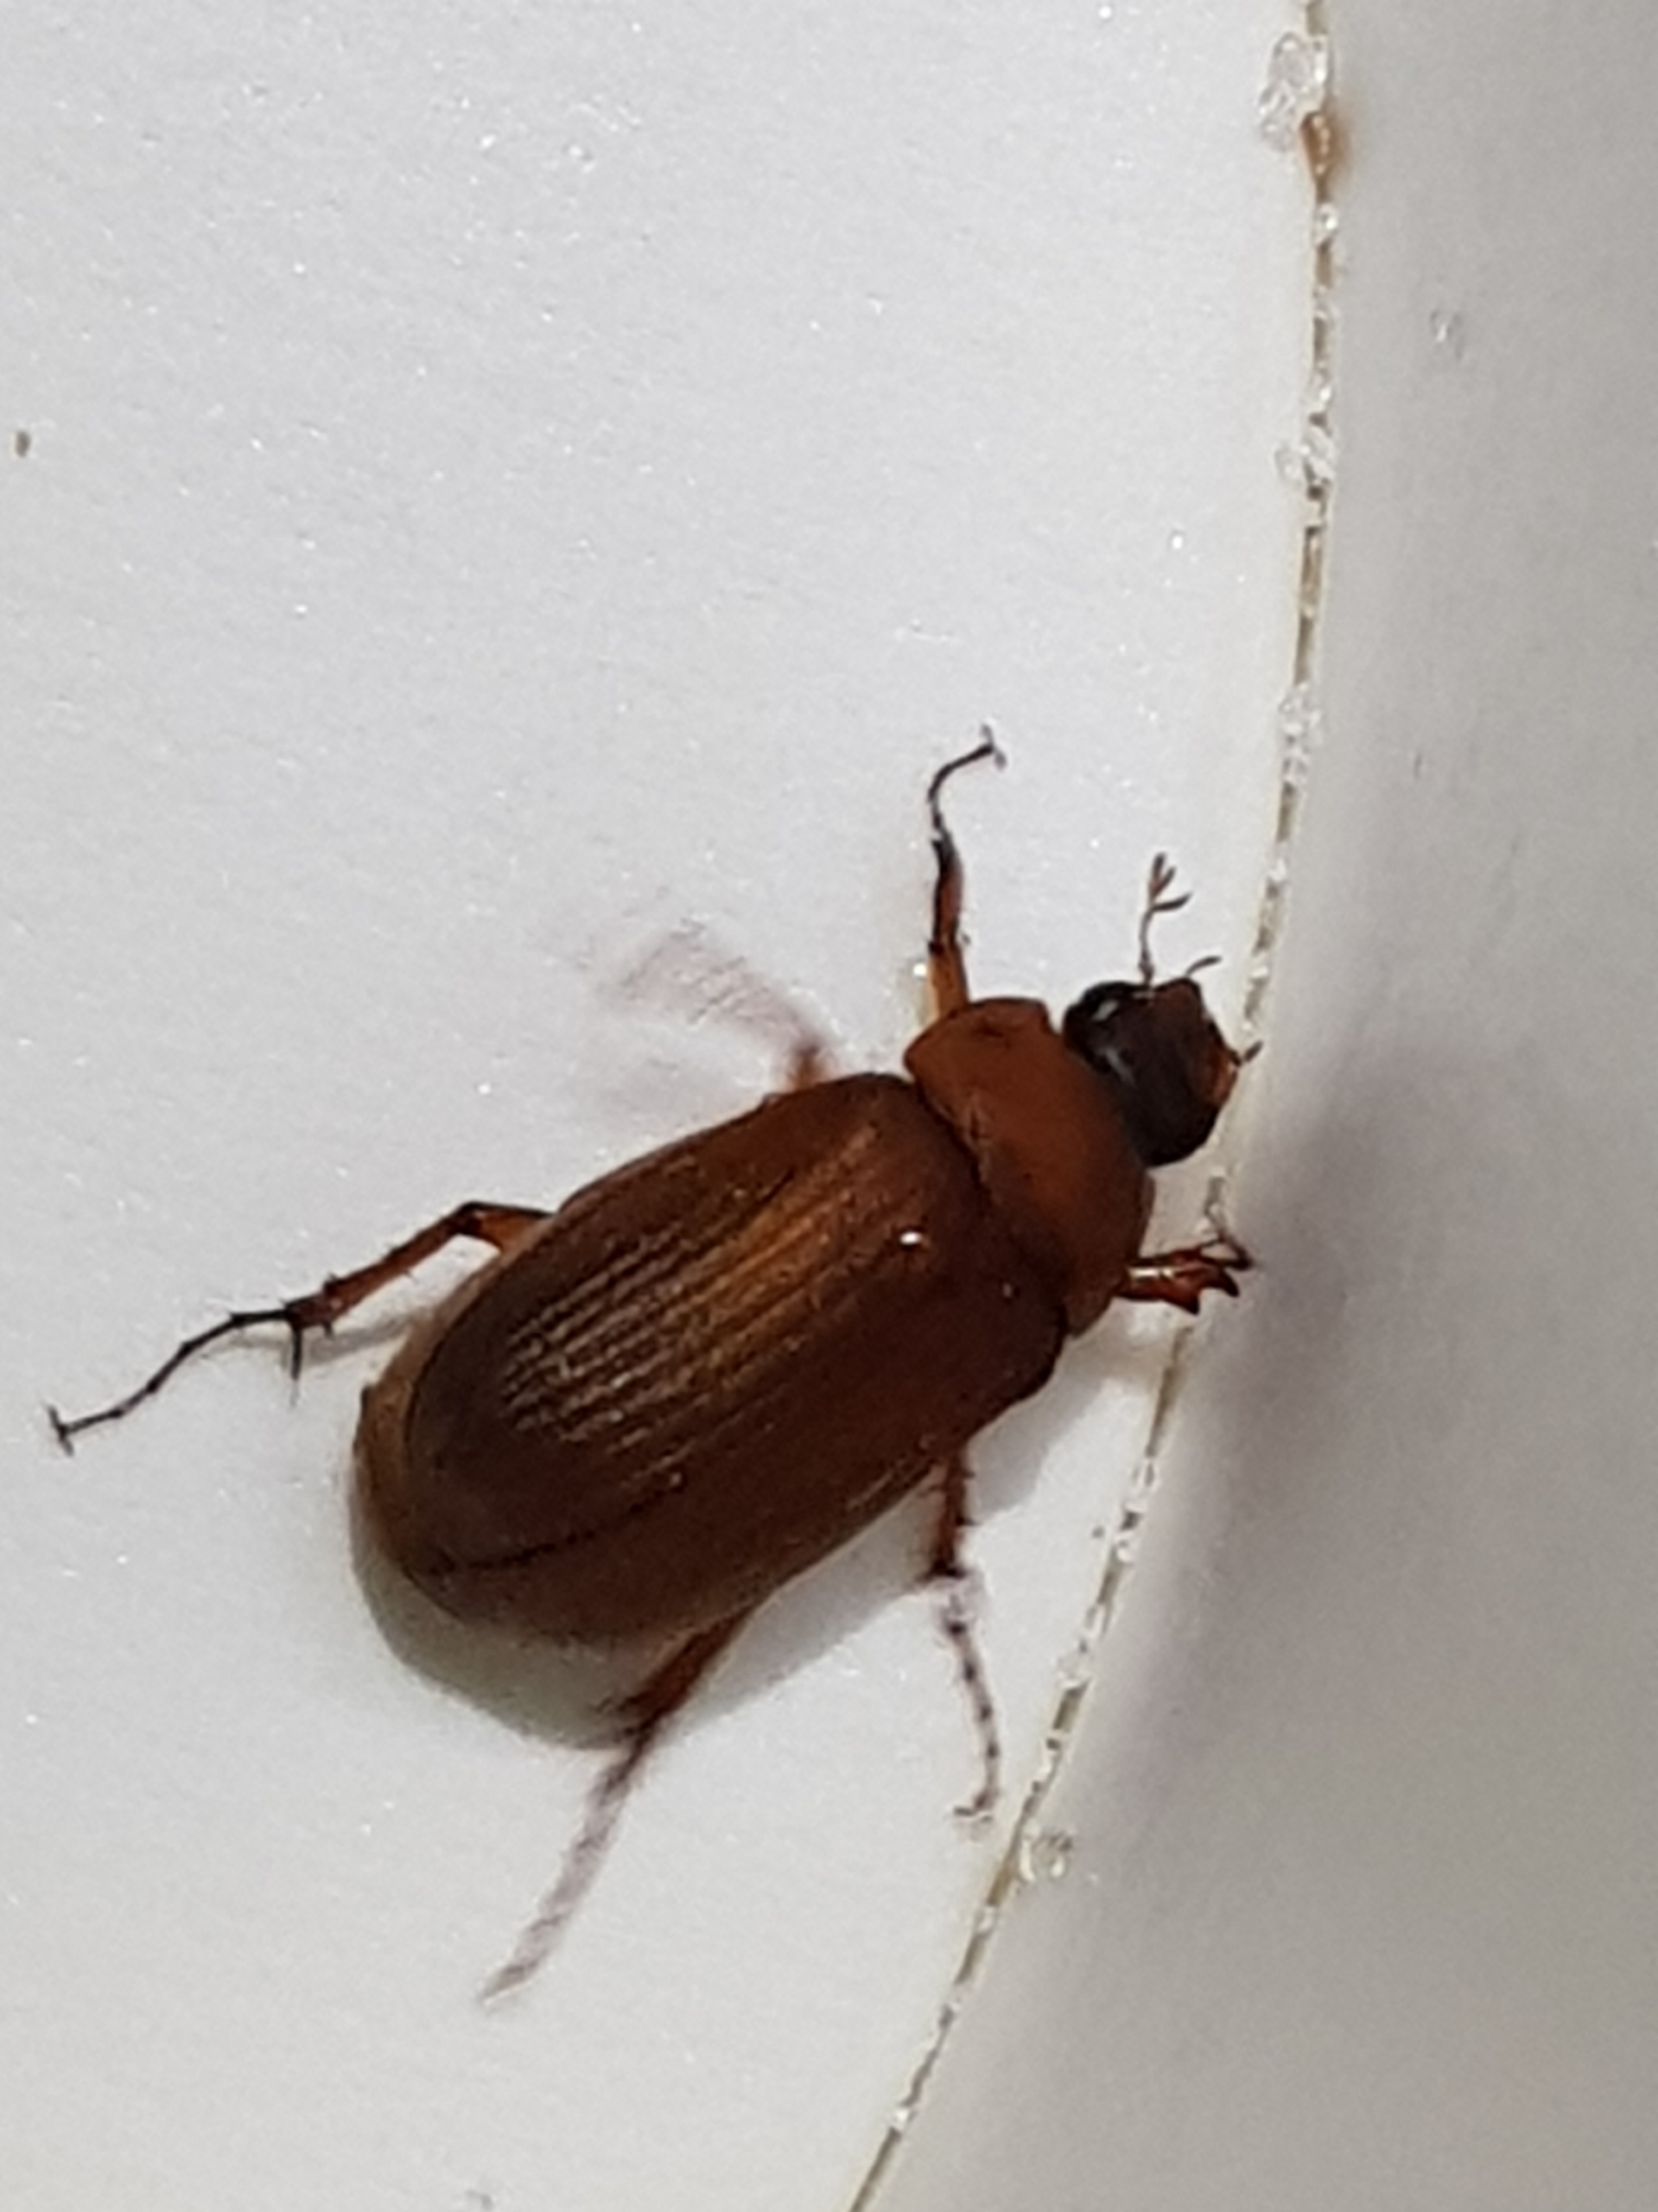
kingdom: Animalia
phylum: Arthropoda
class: Insecta
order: Coleoptera
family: Scarabaeidae
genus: Serica
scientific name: Serica brunnea
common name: Natoldenborre
